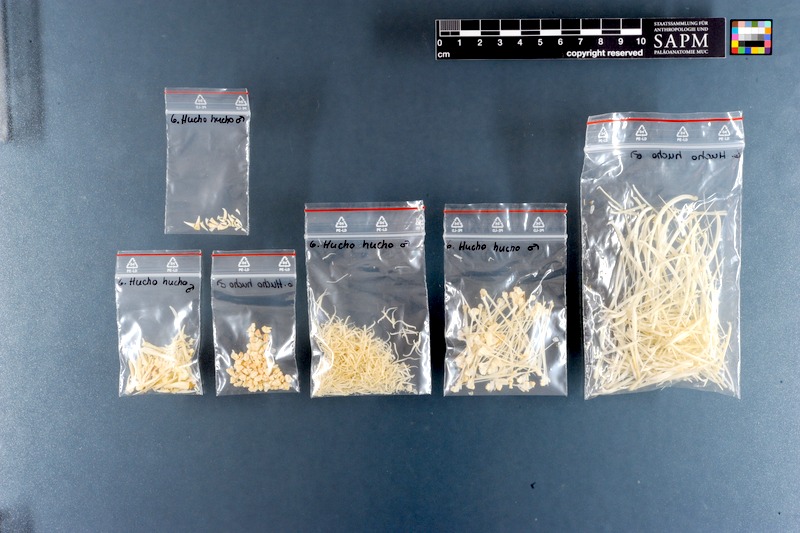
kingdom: Animalia
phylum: Chordata
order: Salmoniformes
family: Salmonidae
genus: Hucho
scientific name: Hucho hucho
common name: Huchen (danube salmon)
